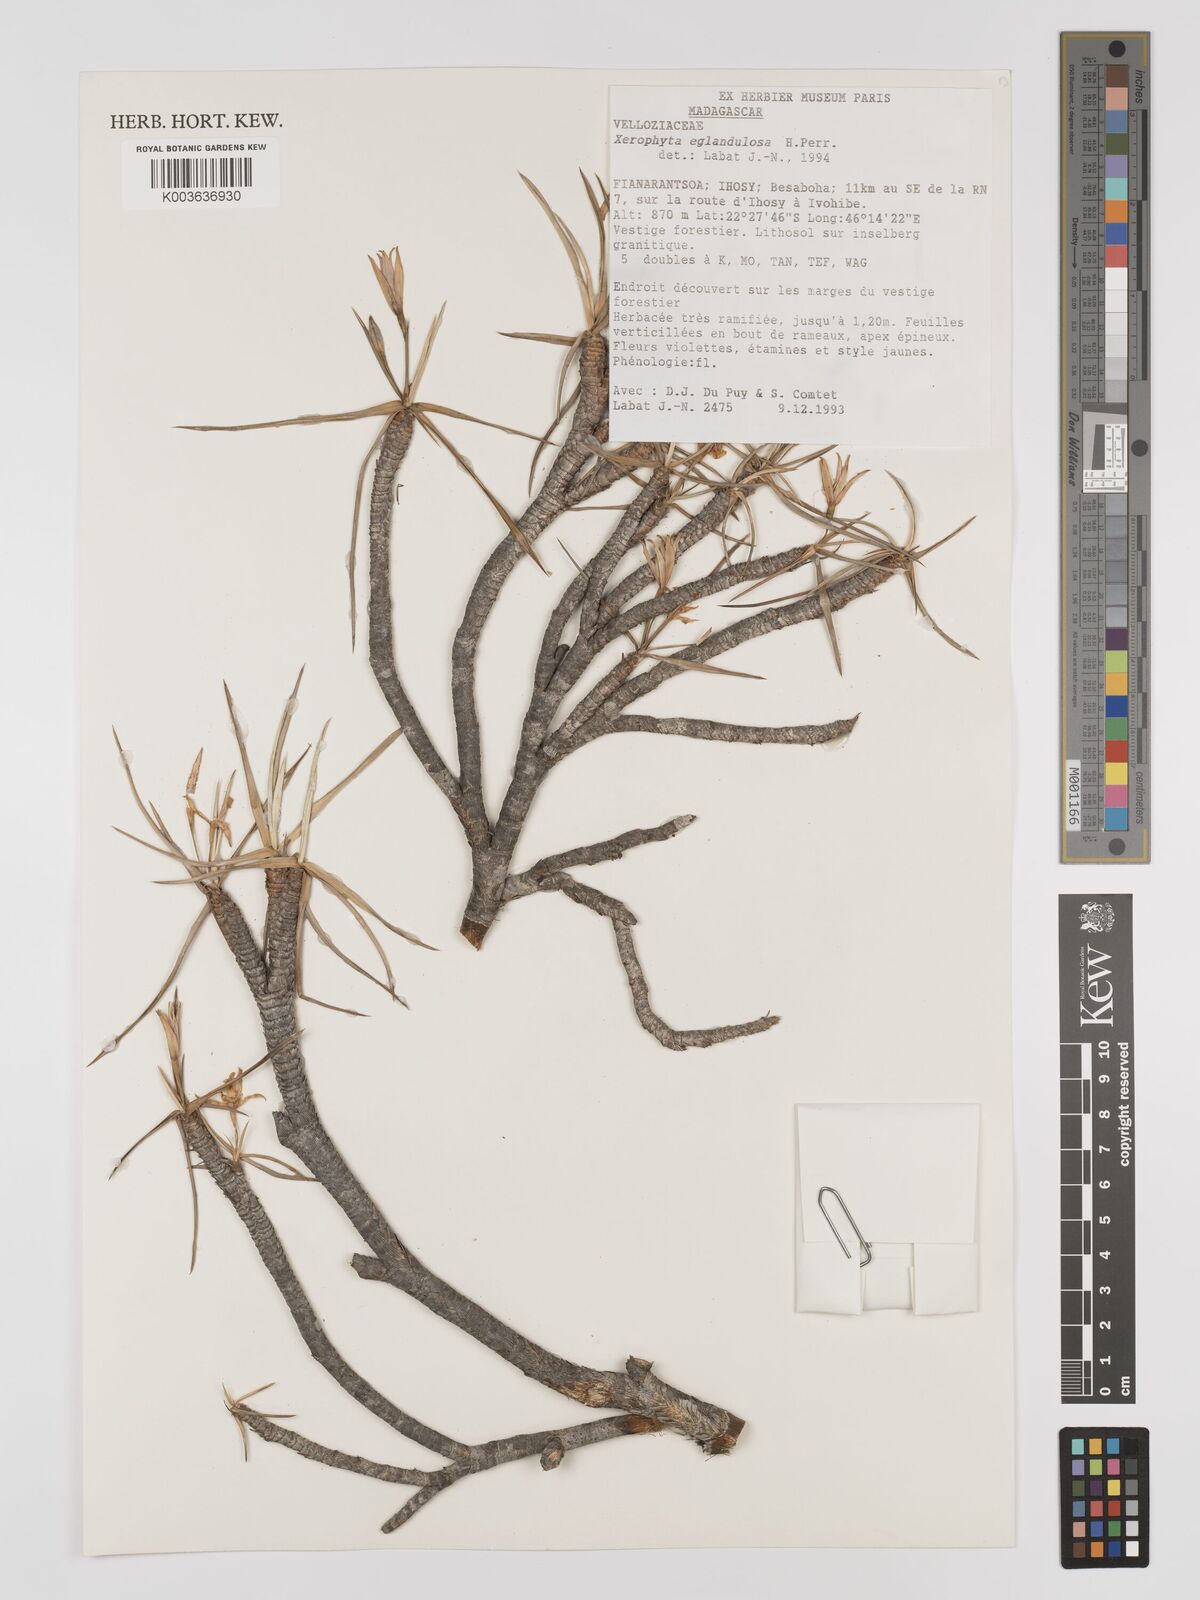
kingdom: Plantae
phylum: Tracheophyta
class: Liliopsida
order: Pandanales
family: Velloziaceae
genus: Xerophyta
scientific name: Xerophyta eglandulosa
